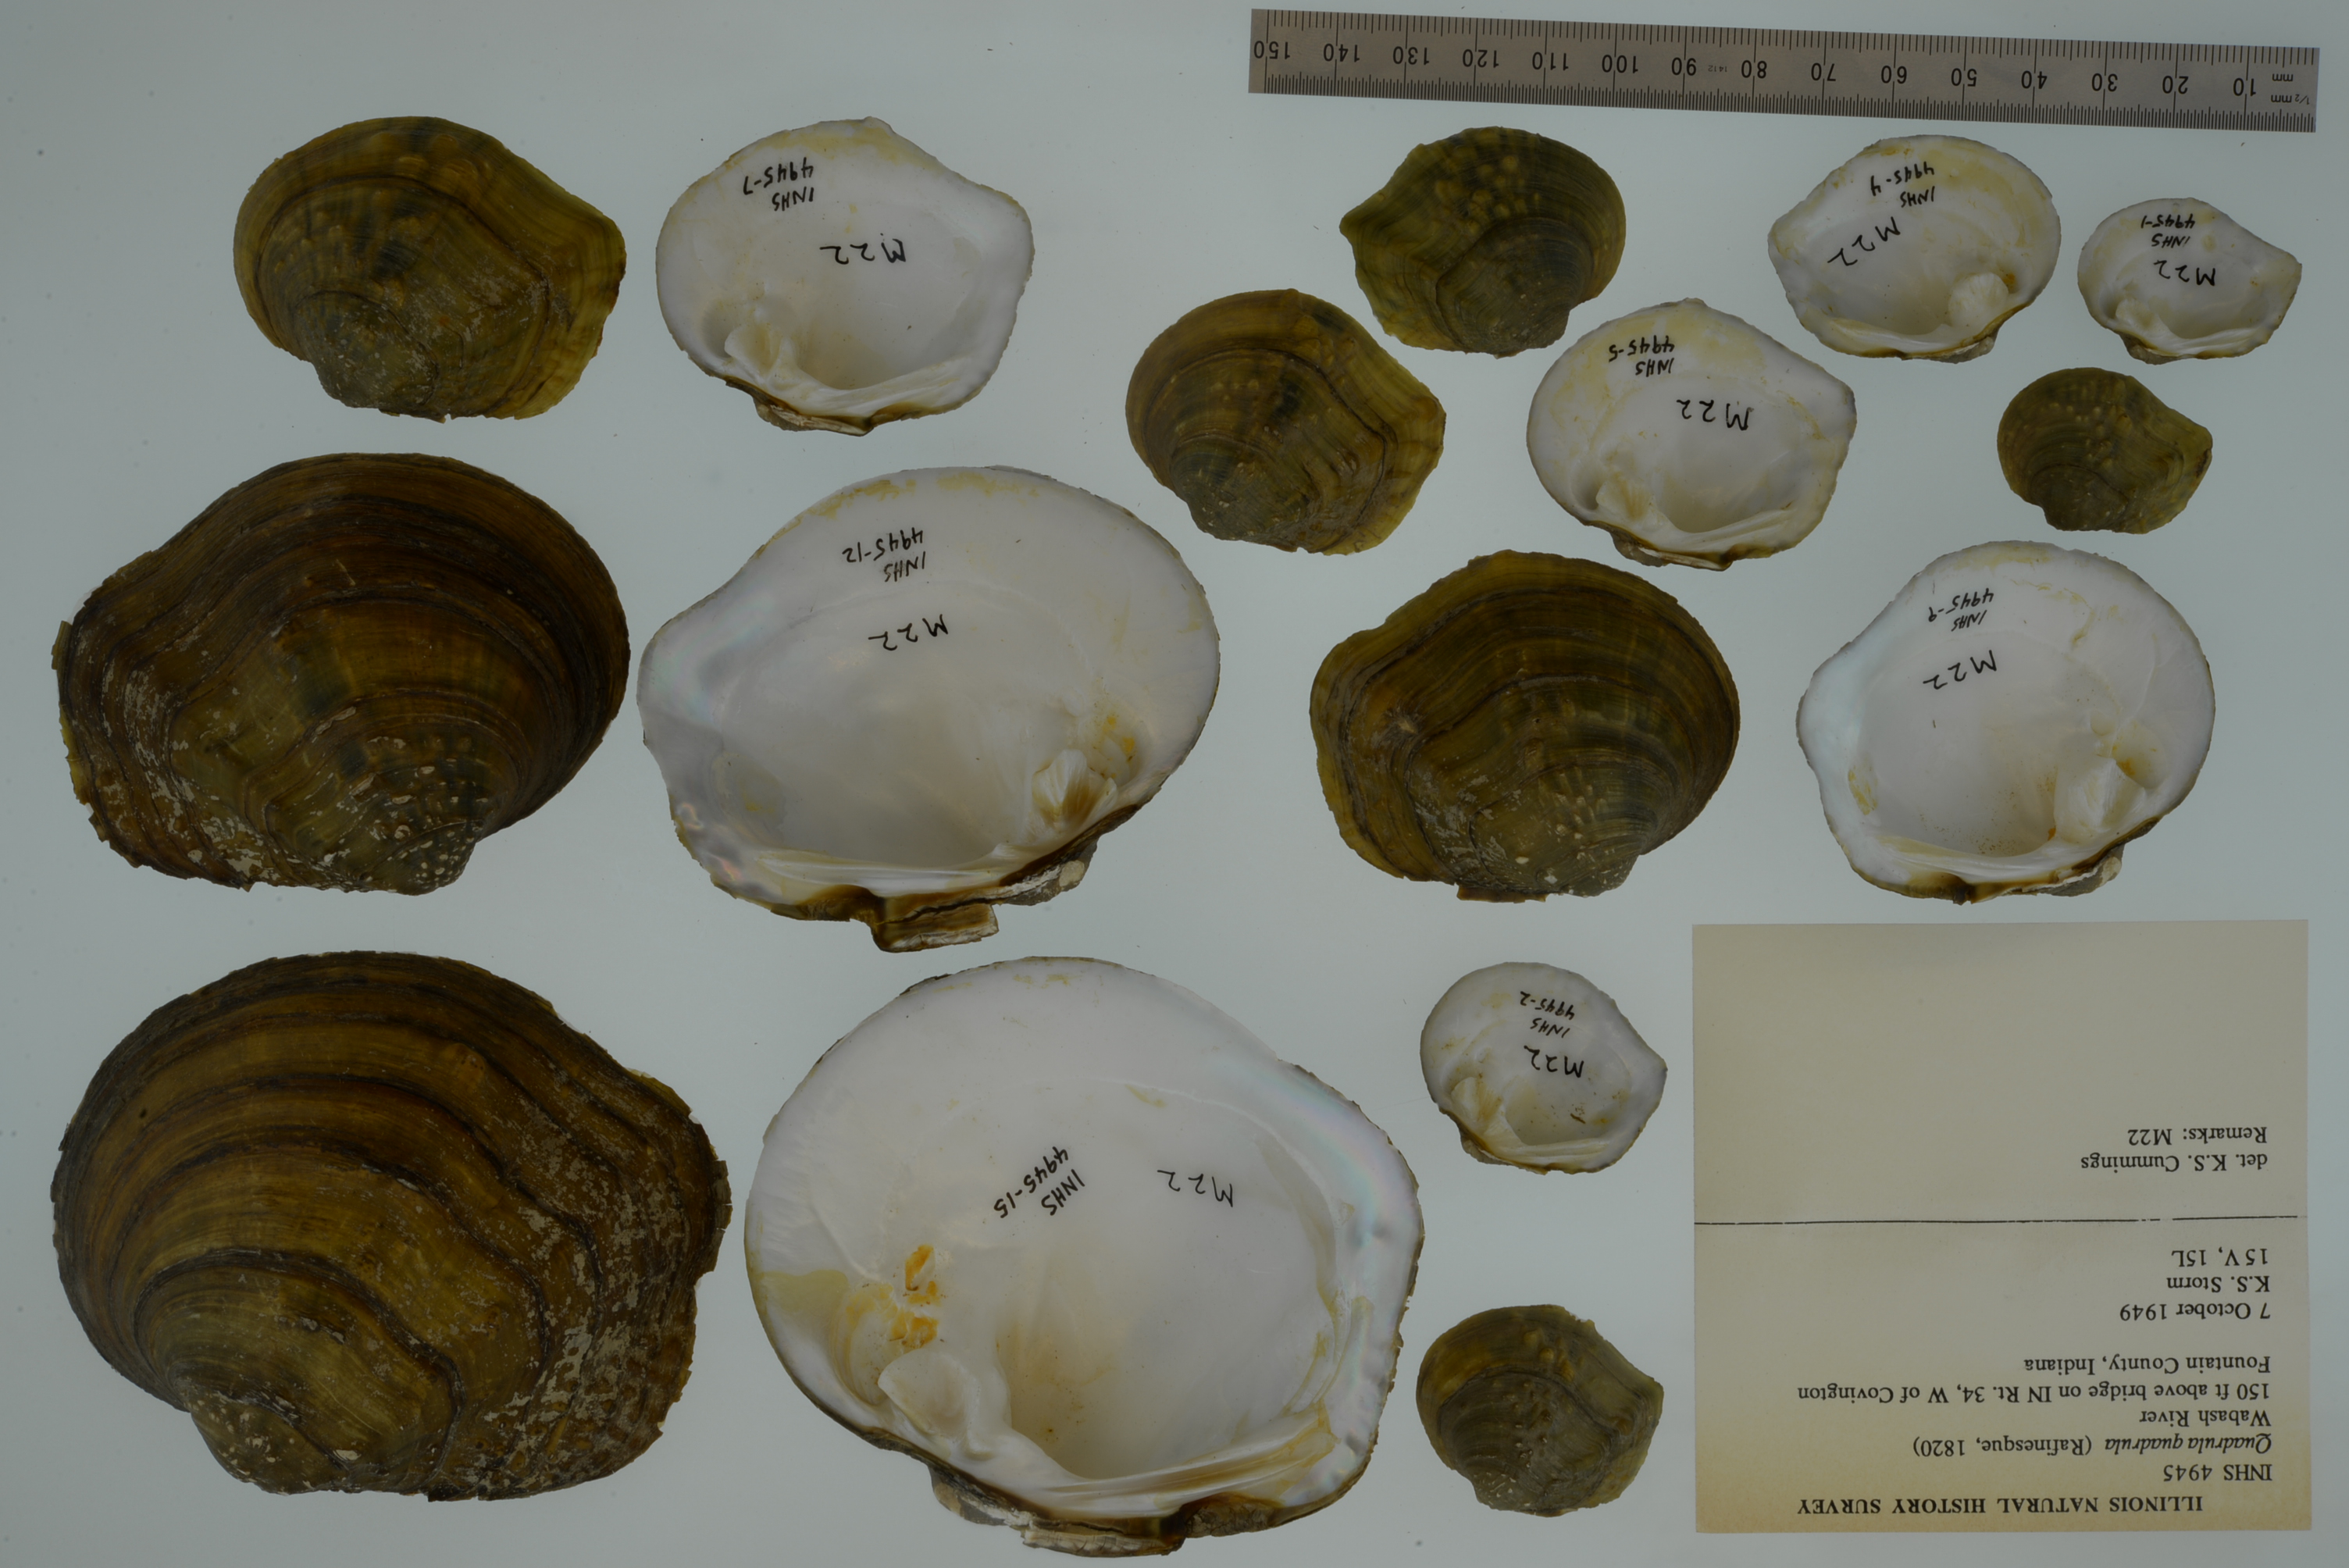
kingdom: Animalia
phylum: Mollusca
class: Bivalvia
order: Unionida
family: Unionidae
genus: Quadrula
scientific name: Quadrula quadrula
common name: Mapleleaf
